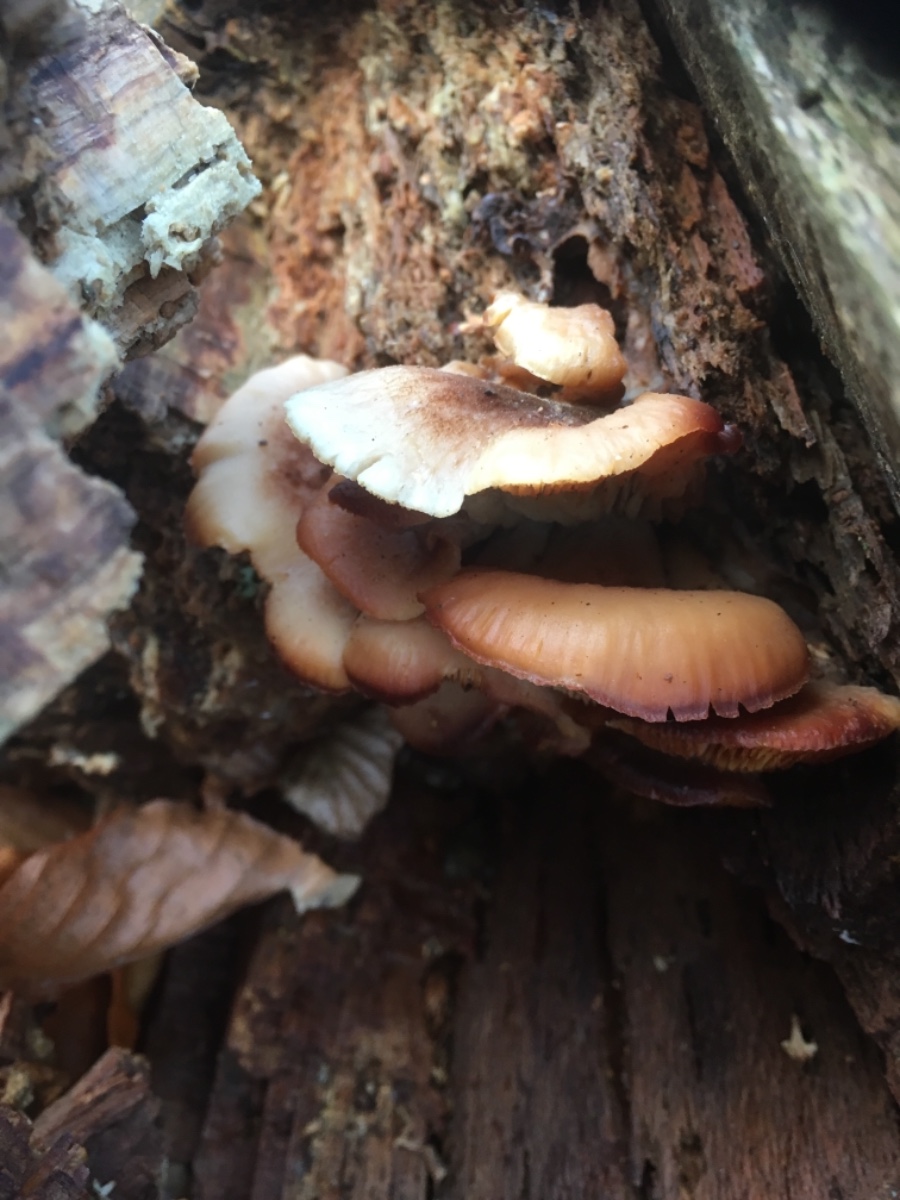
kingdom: Fungi
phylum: Basidiomycota
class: Agaricomycetes
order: Russulales
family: Auriscalpiaceae
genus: Lentinellus
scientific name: Lentinellus ursinus
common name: børstehåret savbladhat
